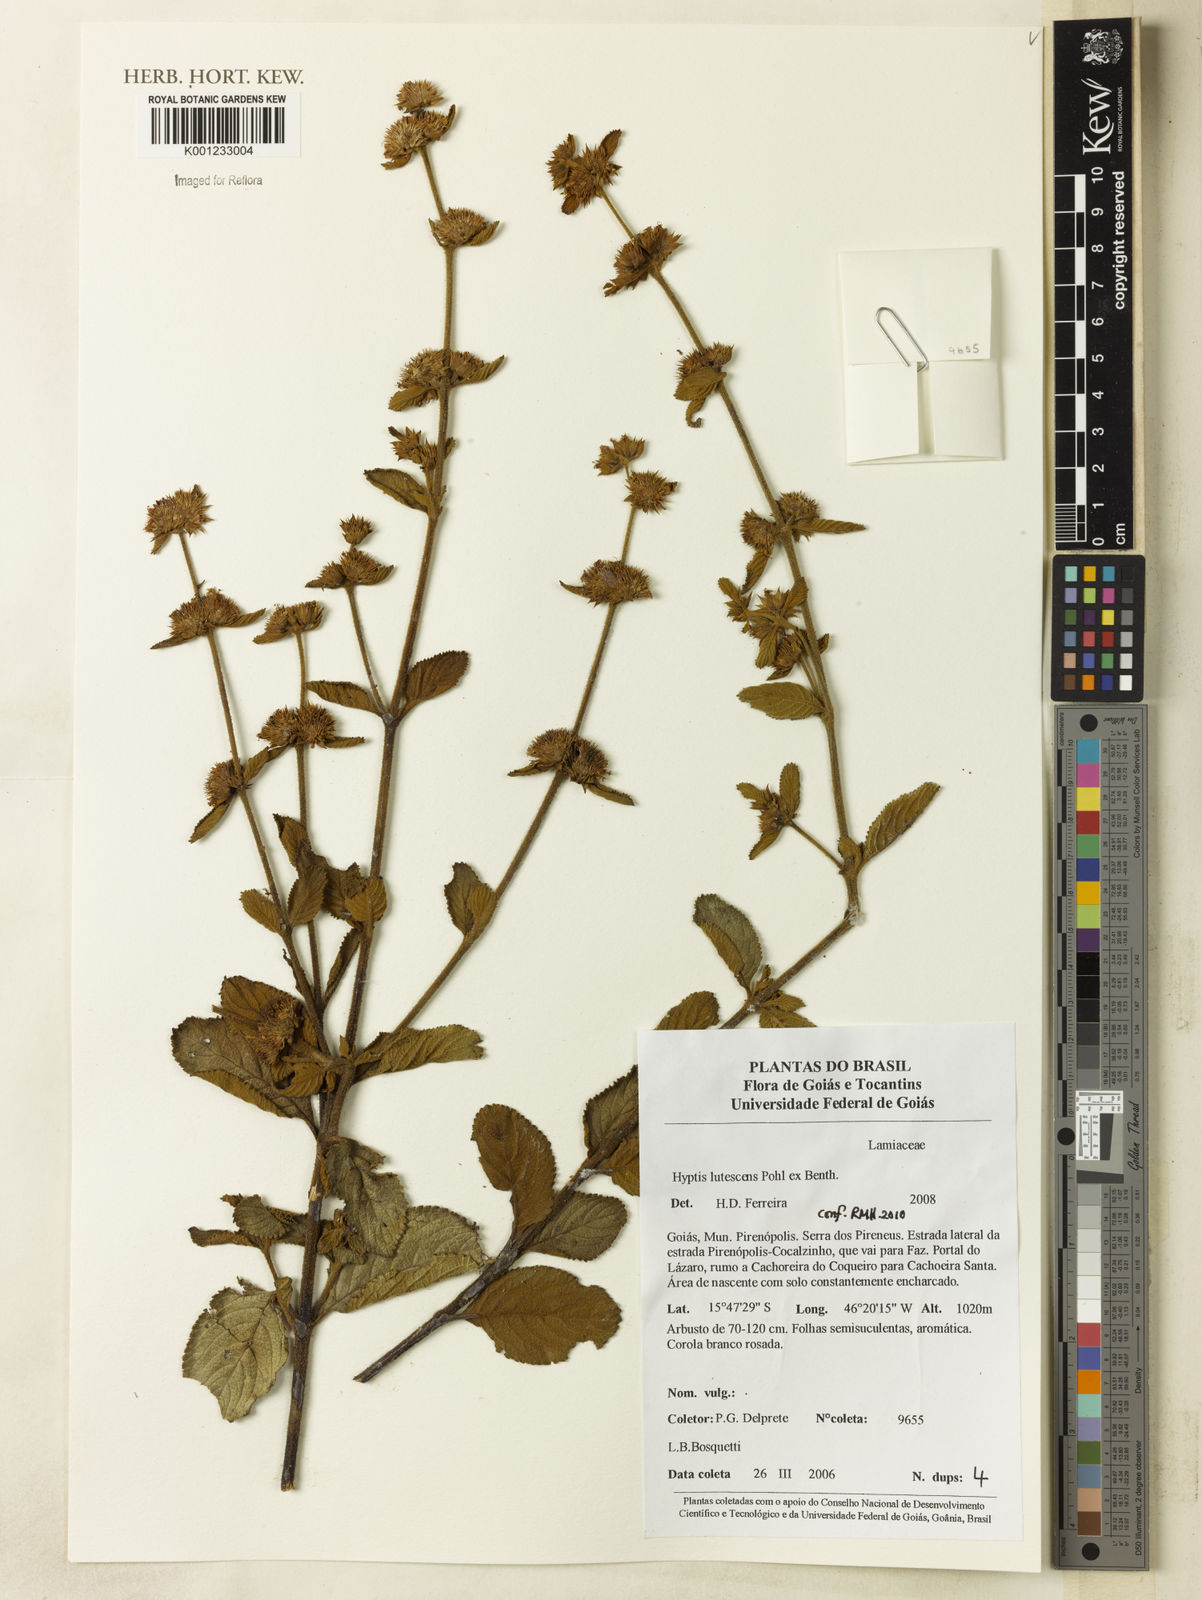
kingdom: Plantae
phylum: Tracheophyta
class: Magnoliopsida
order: Lamiales
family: Lamiaceae
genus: Hyptis
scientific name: Hyptis lutescens
